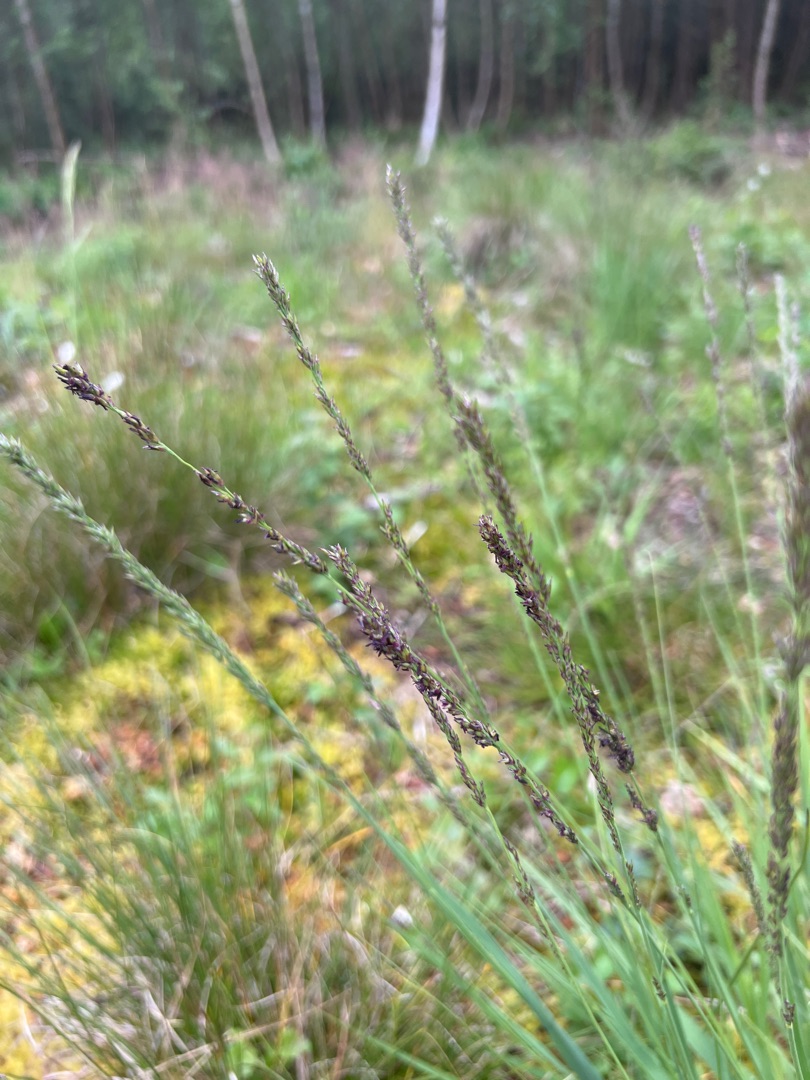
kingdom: Plantae
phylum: Tracheophyta
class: Liliopsida
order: Poales
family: Poaceae
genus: Molinia
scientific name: Molinia caerulea
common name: Blåtop
